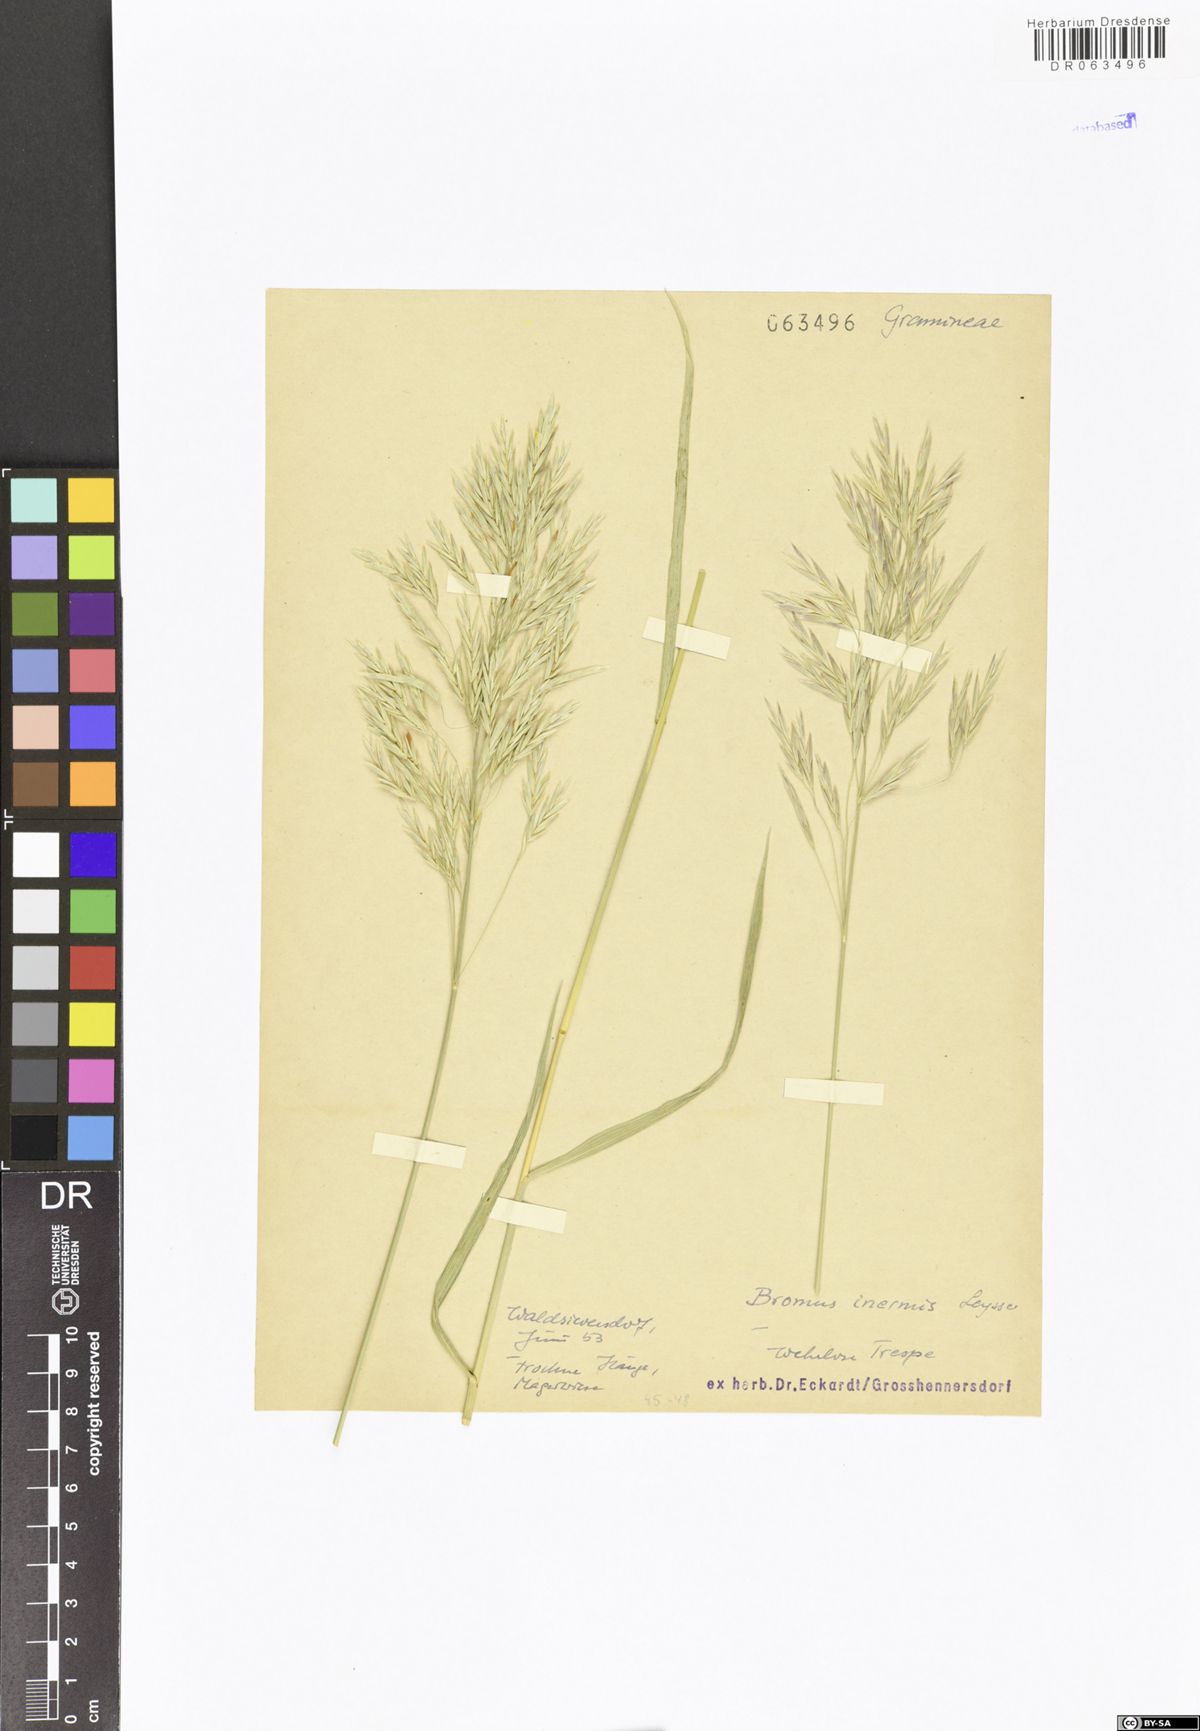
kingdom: Plantae
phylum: Tracheophyta
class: Liliopsida
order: Poales
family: Poaceae
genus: Bromus
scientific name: Bromus inermis
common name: Smooth brome
